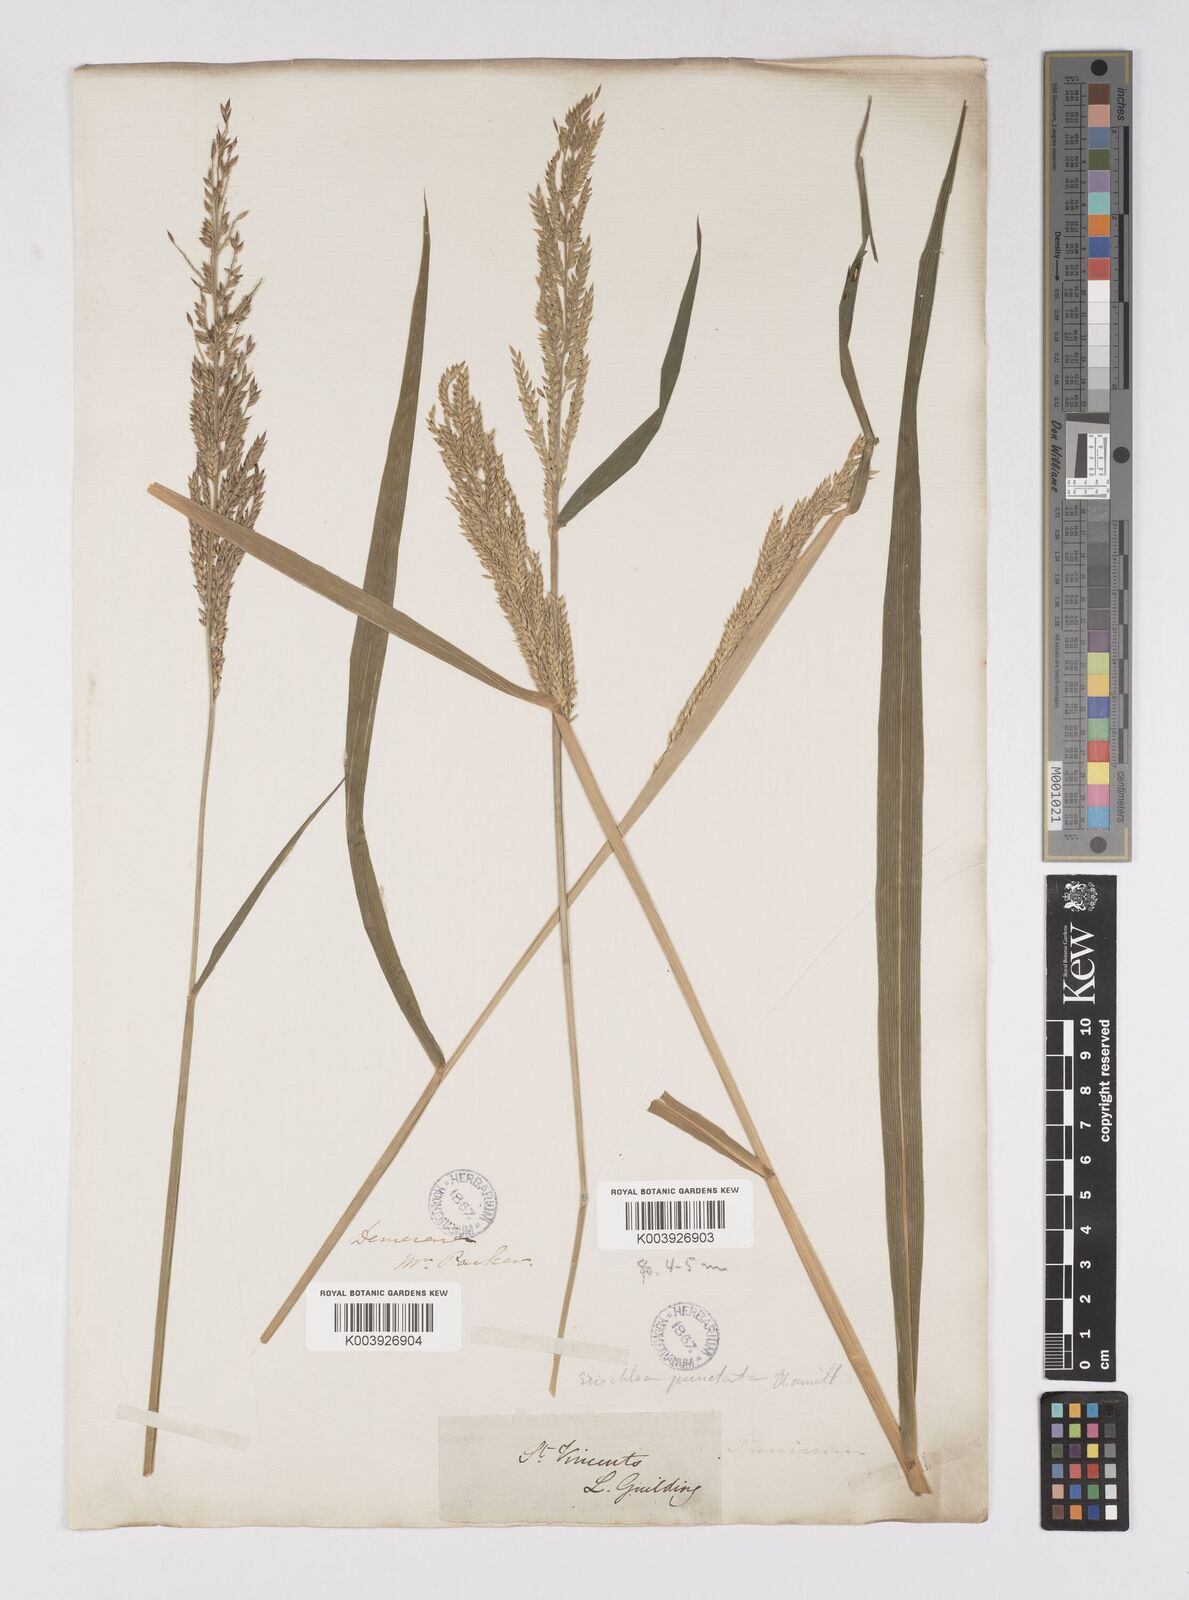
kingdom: Plantae
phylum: Tracheophyta
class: Liliopsida
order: Poales
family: Poaceae
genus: Eriochloa
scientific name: Eriochloa punctata
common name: Louisiana cupgrass
